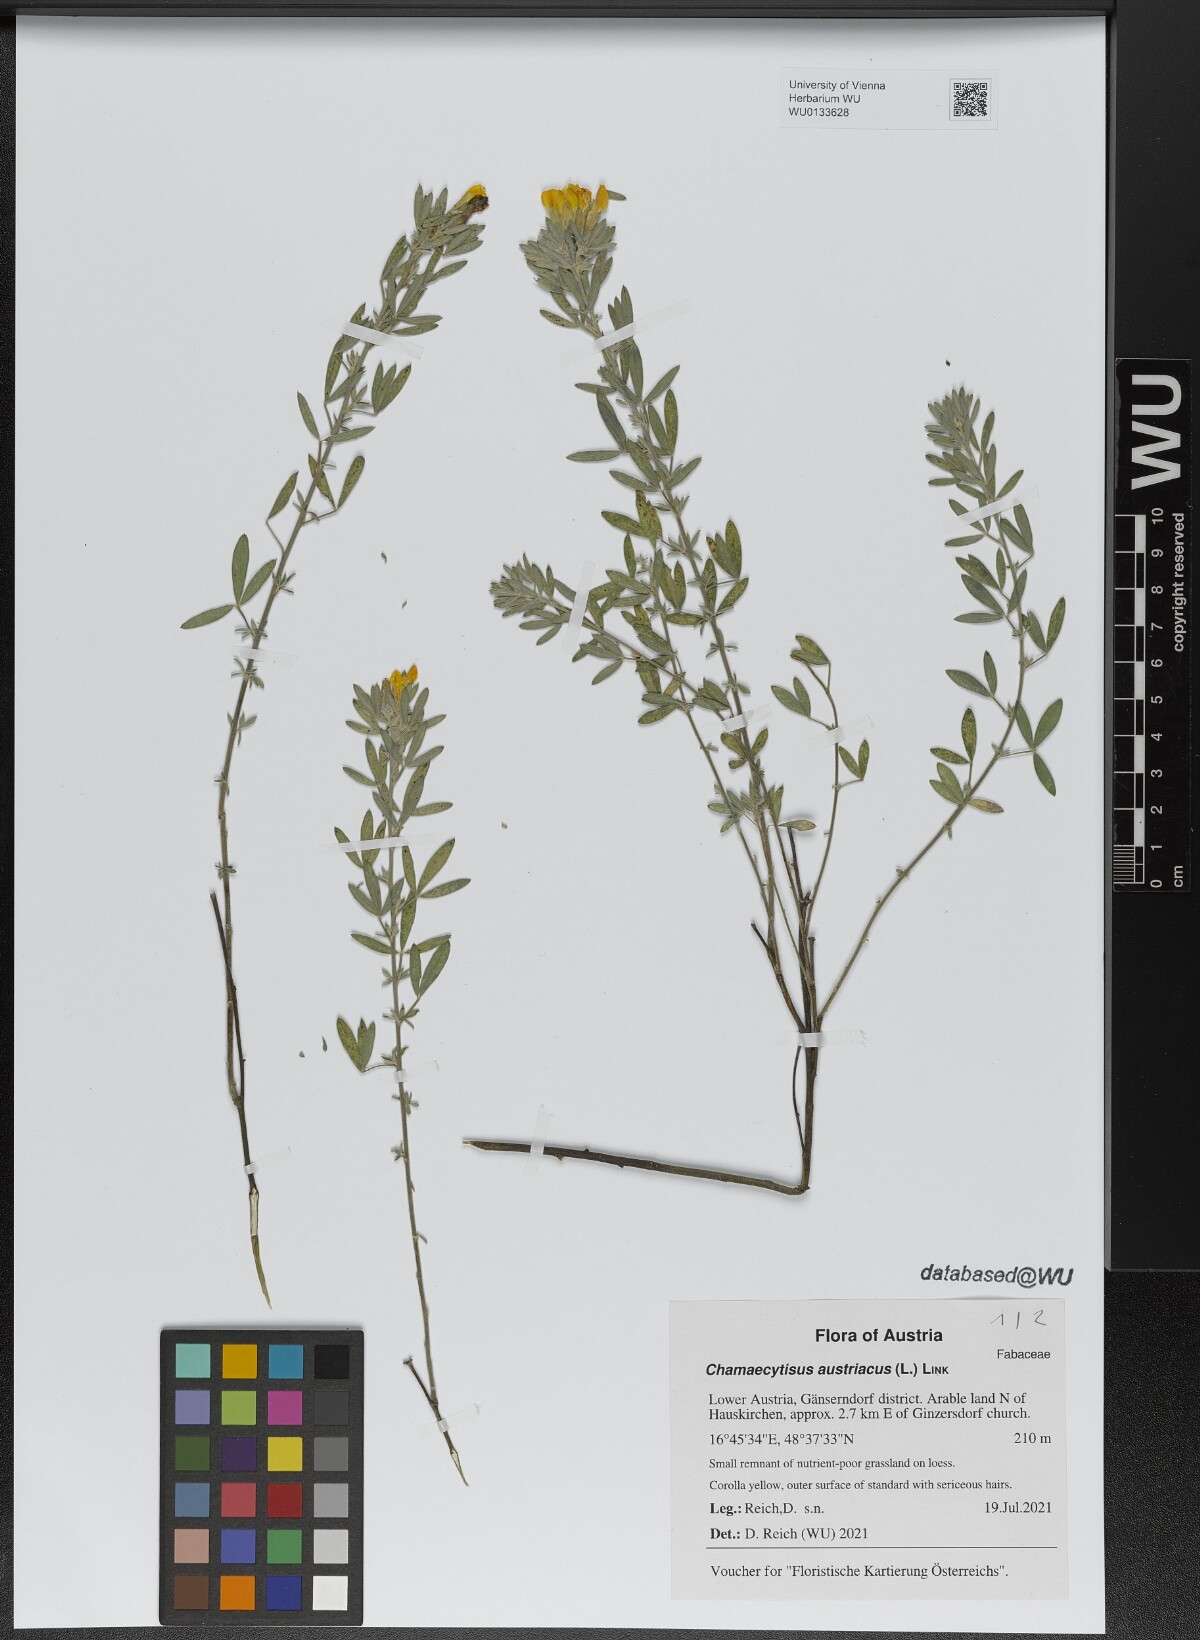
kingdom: Plantae
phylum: Tracheophyta
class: Magnoliopsida
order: Fabales
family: Fabaceae
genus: Chamaecytisus
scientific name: Chamaecytisus austriacus
